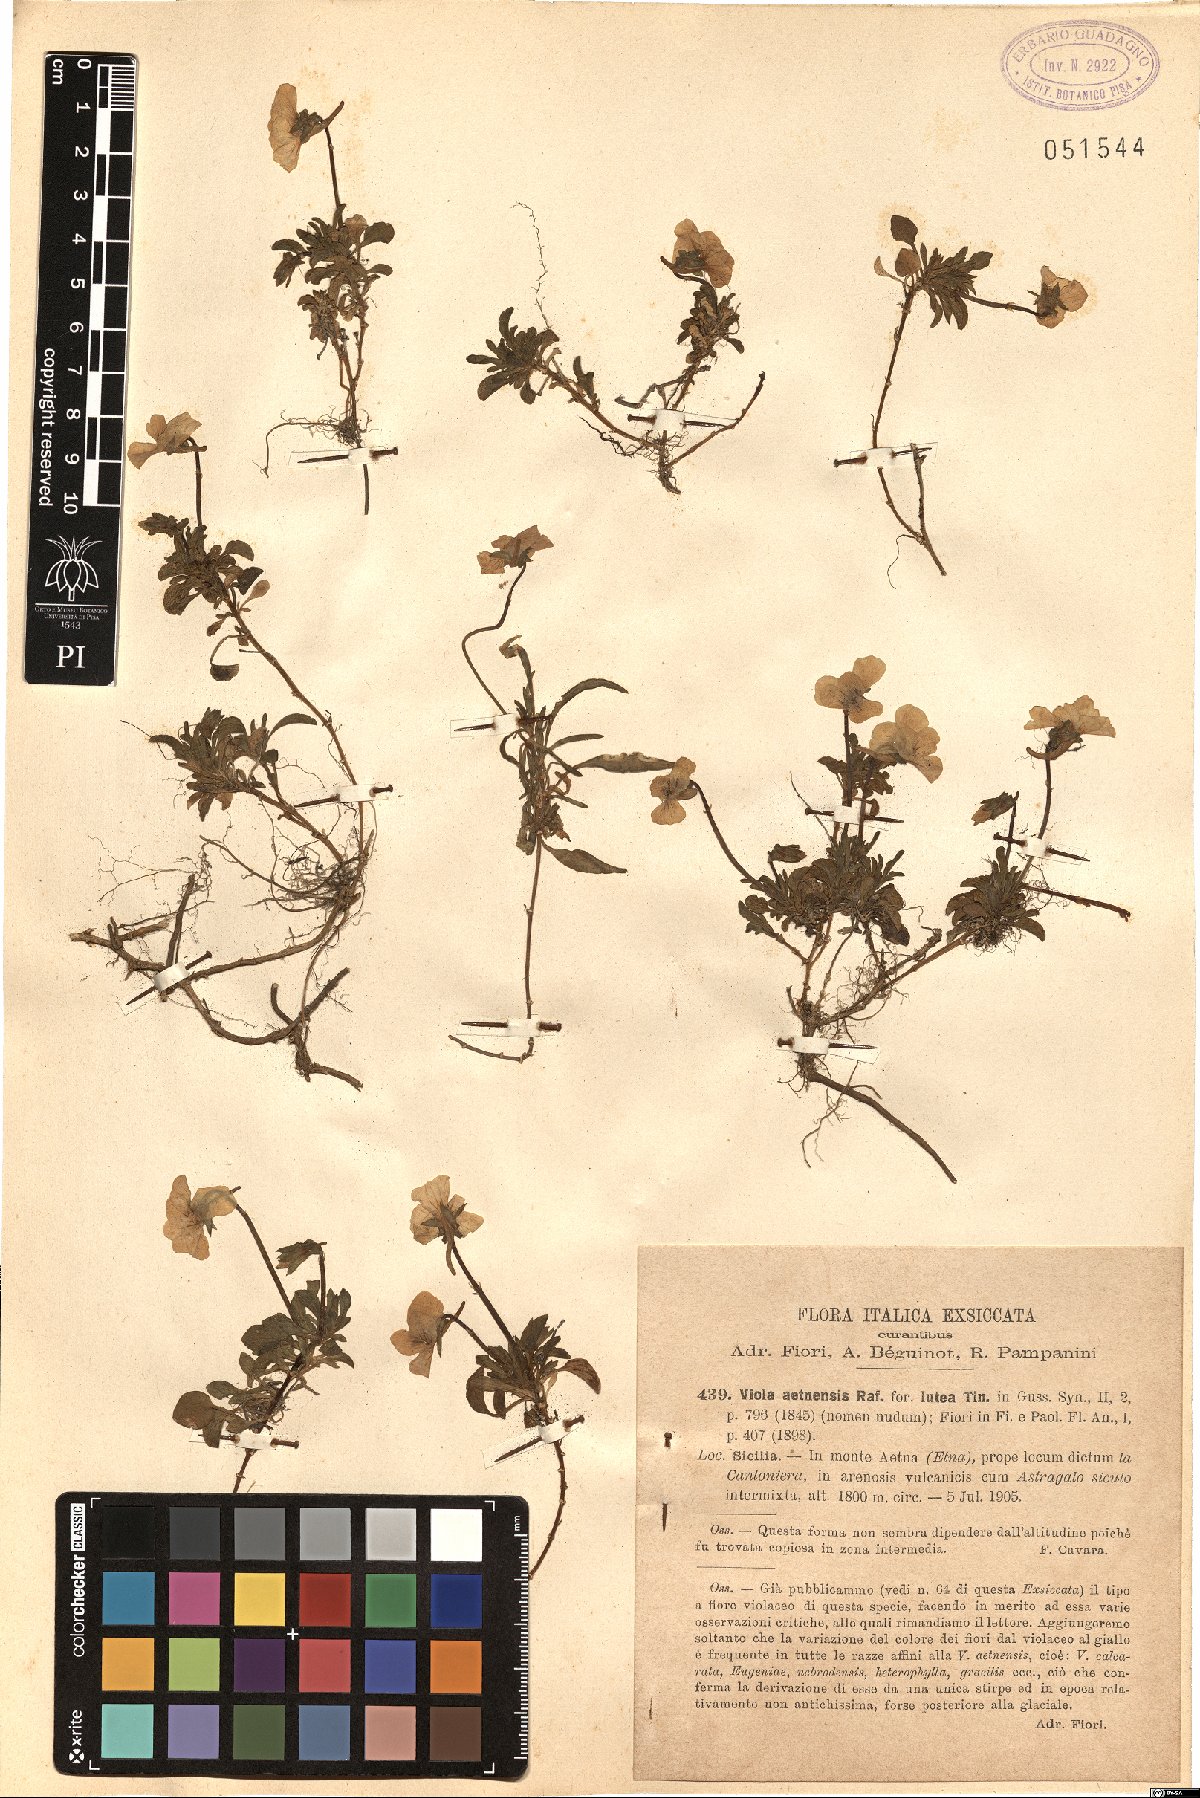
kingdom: Plantae
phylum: Tracheophyta
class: Magnoliopsida
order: Malpighiales
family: Violaceae
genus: Viola
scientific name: Viola aethnensis
